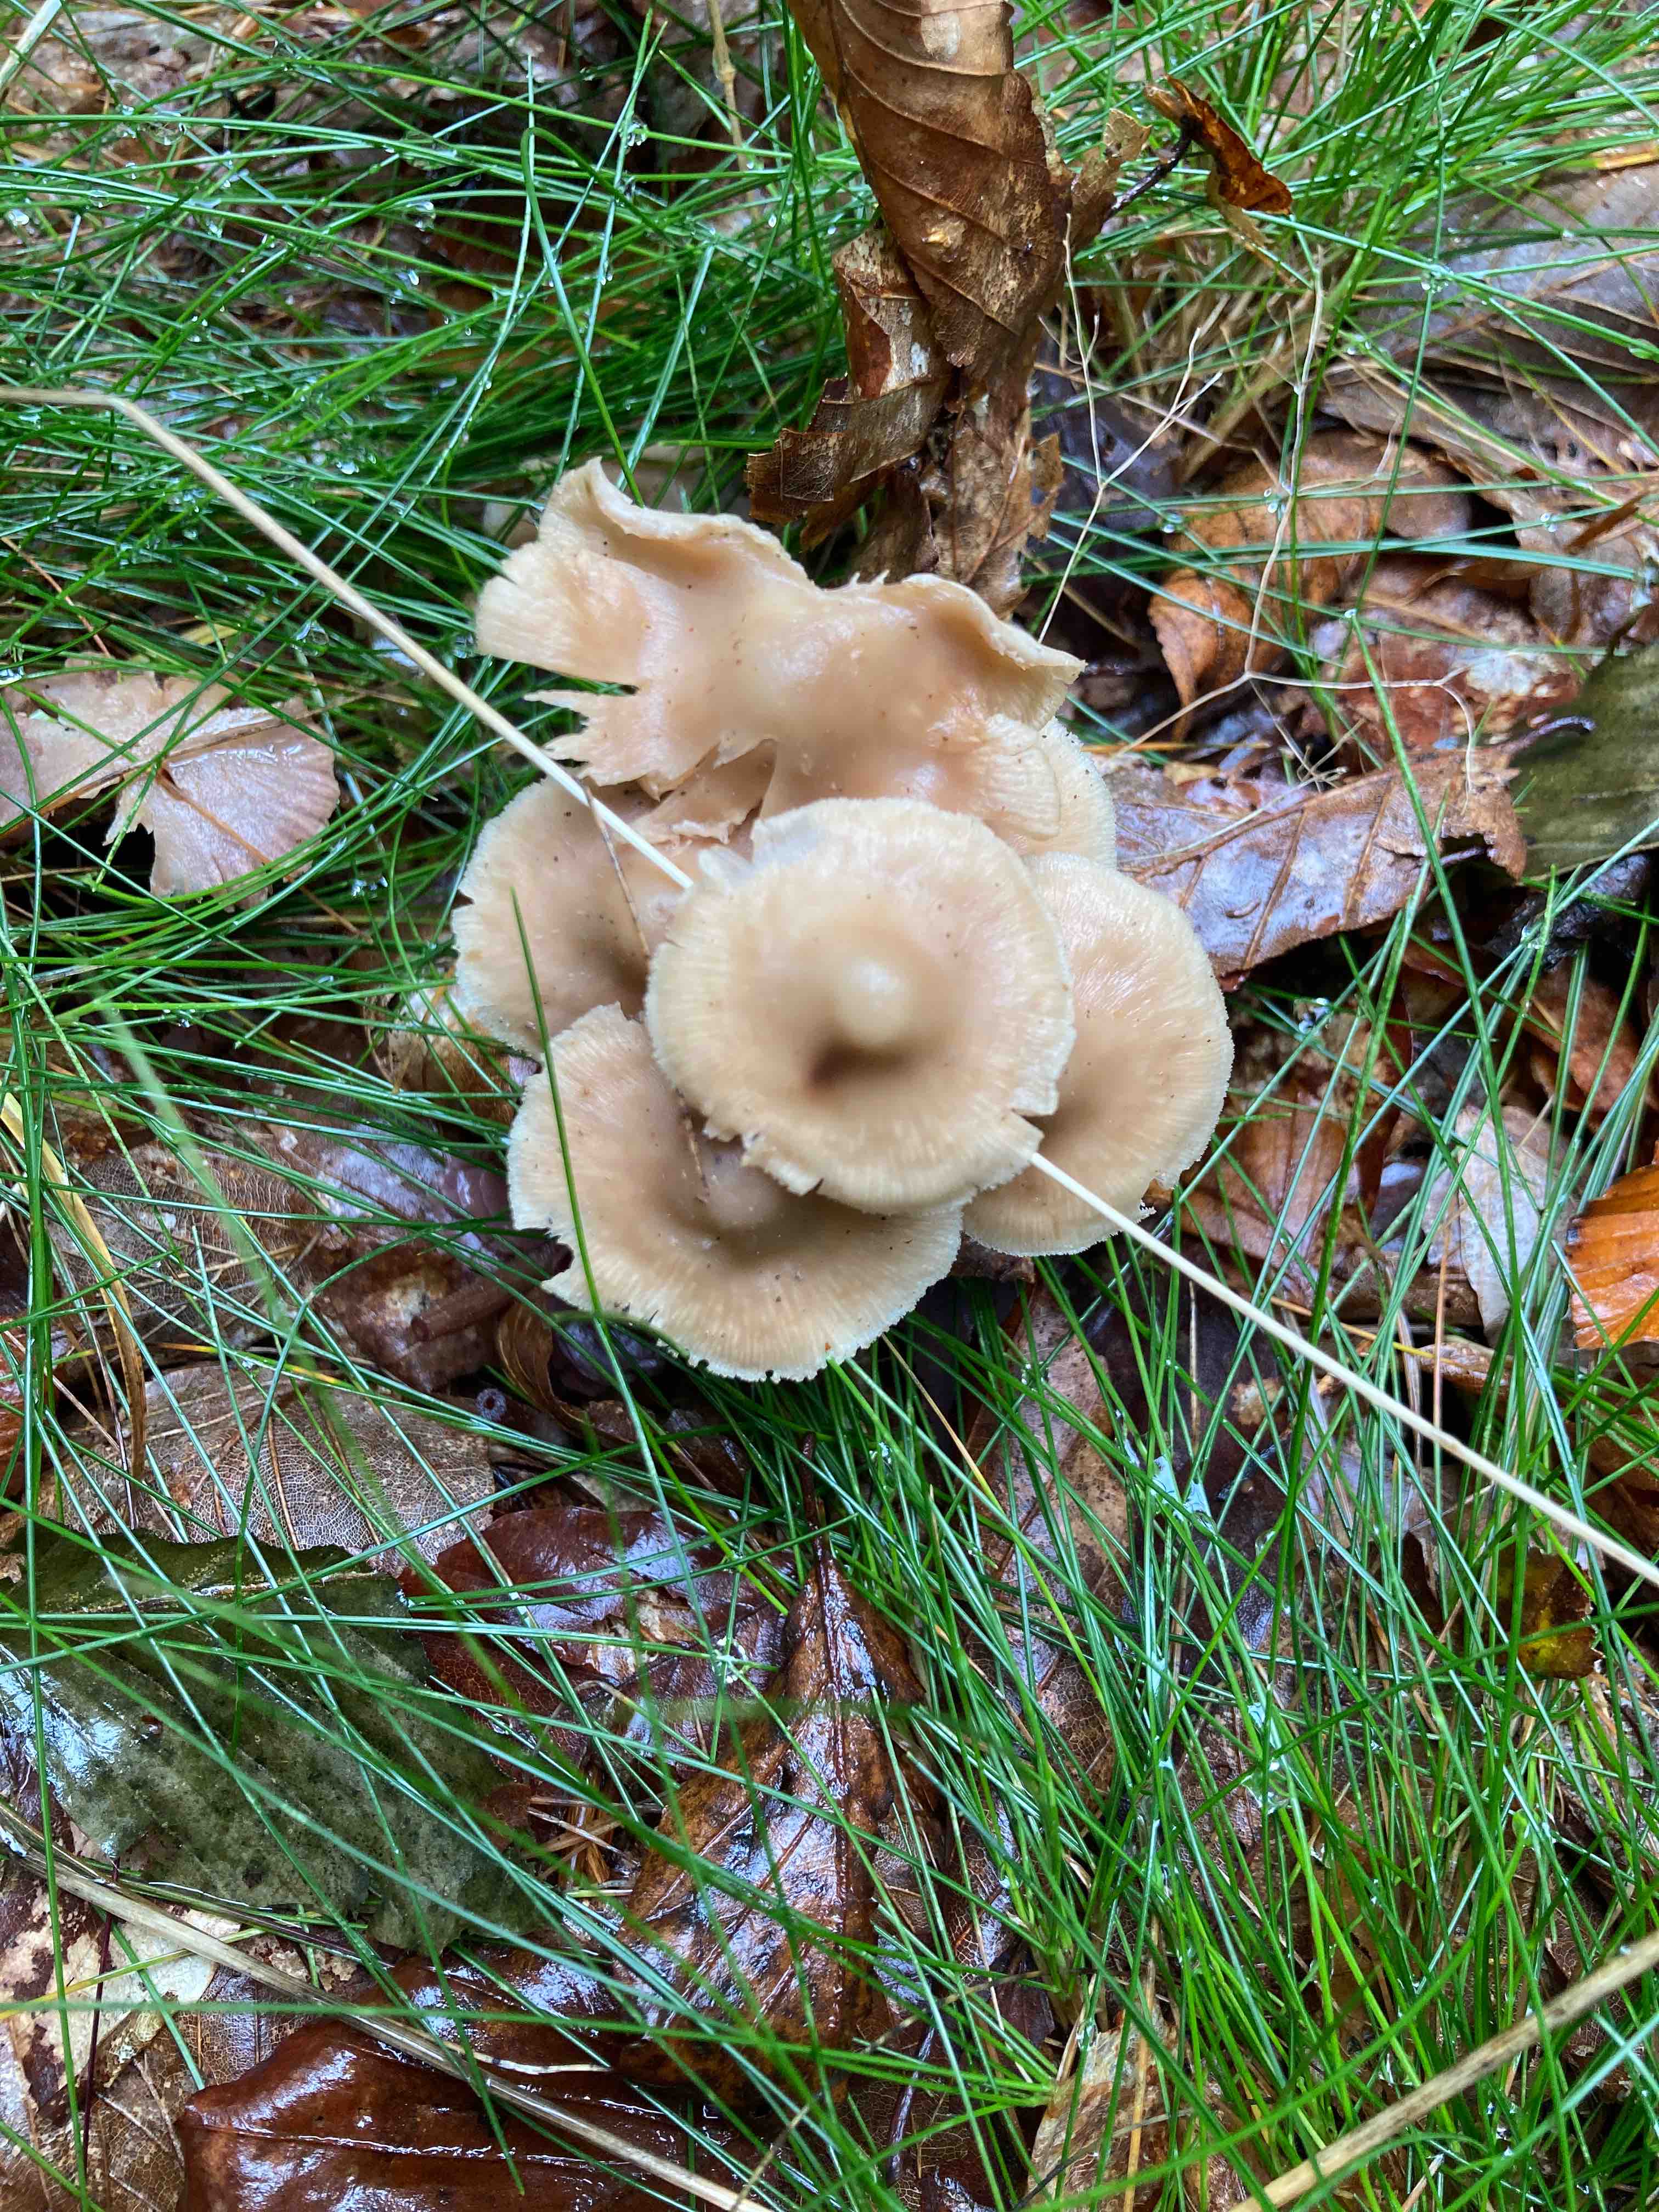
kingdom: Fungi
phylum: Basidiomycota
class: Agaricomycetes
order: Agaricales
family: Omphalotaceae
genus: Collybiopsis
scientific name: Collybiopsis confluens
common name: knippe-fladhat
